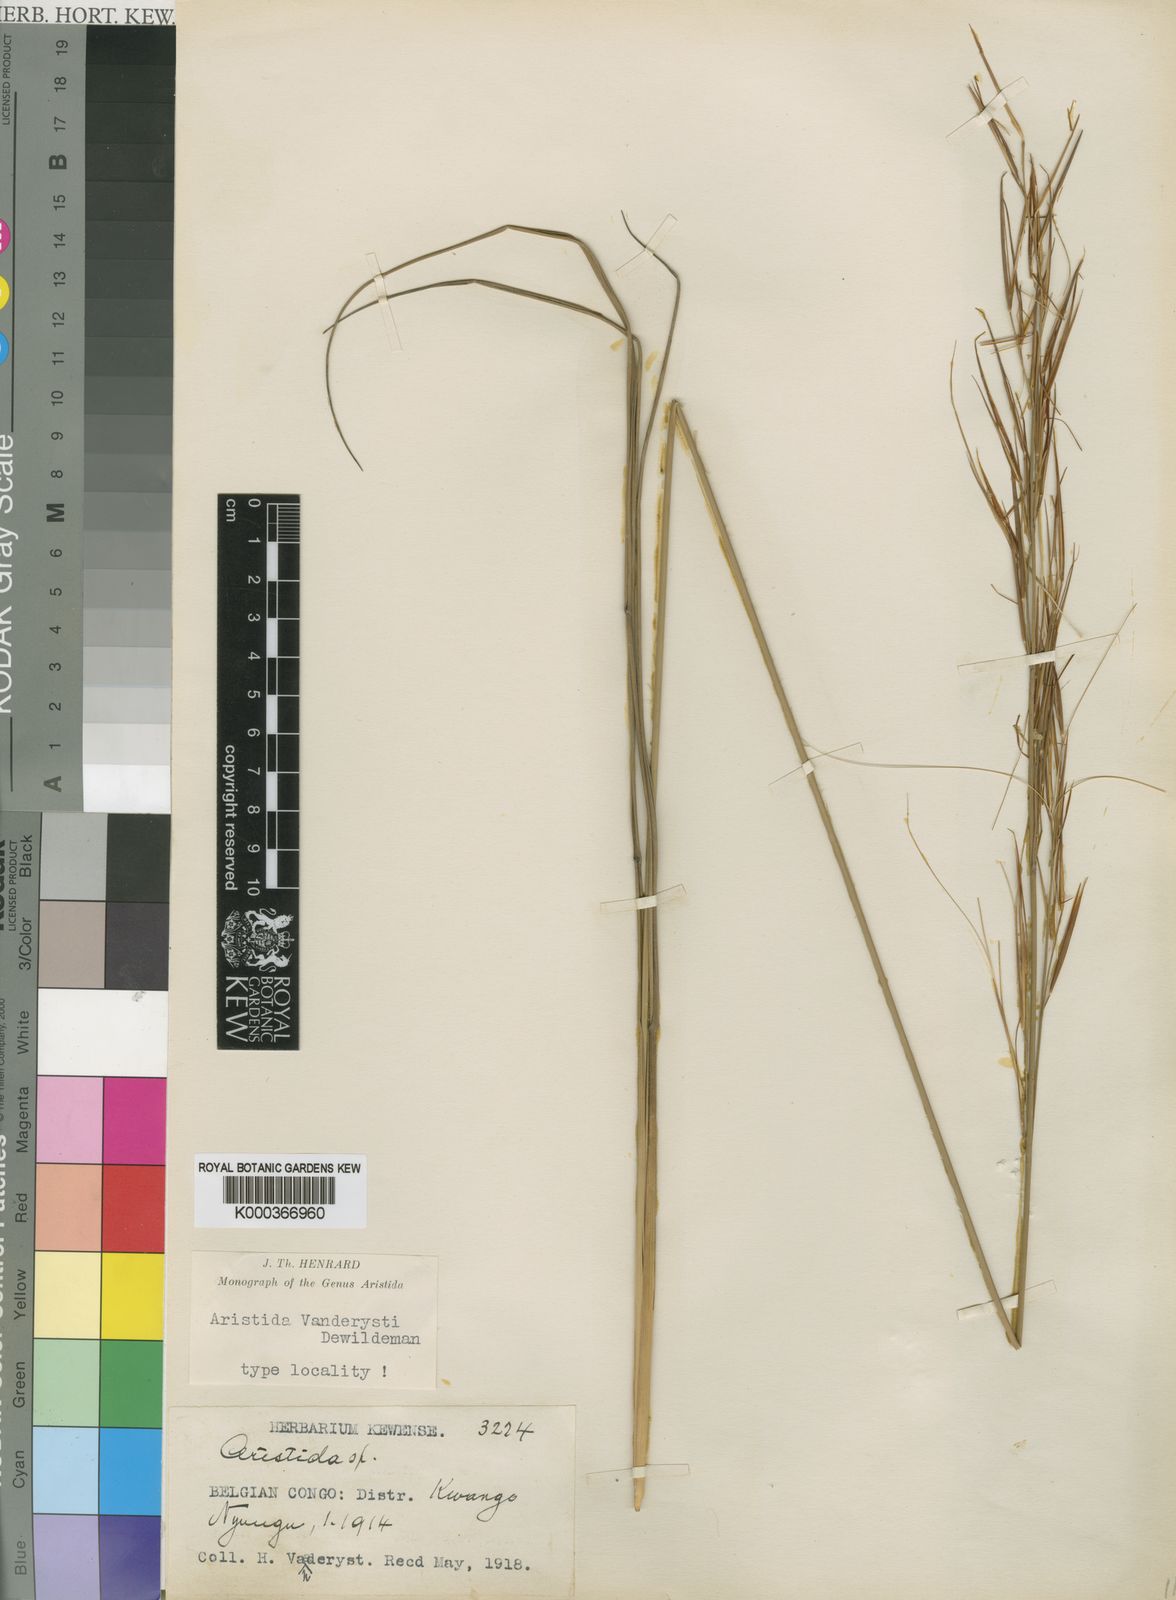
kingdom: Plantae
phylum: Tracheophyta
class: Liliopsida
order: Poales
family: Poaceae
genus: Sartidia
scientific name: Sartidia vanderystii
